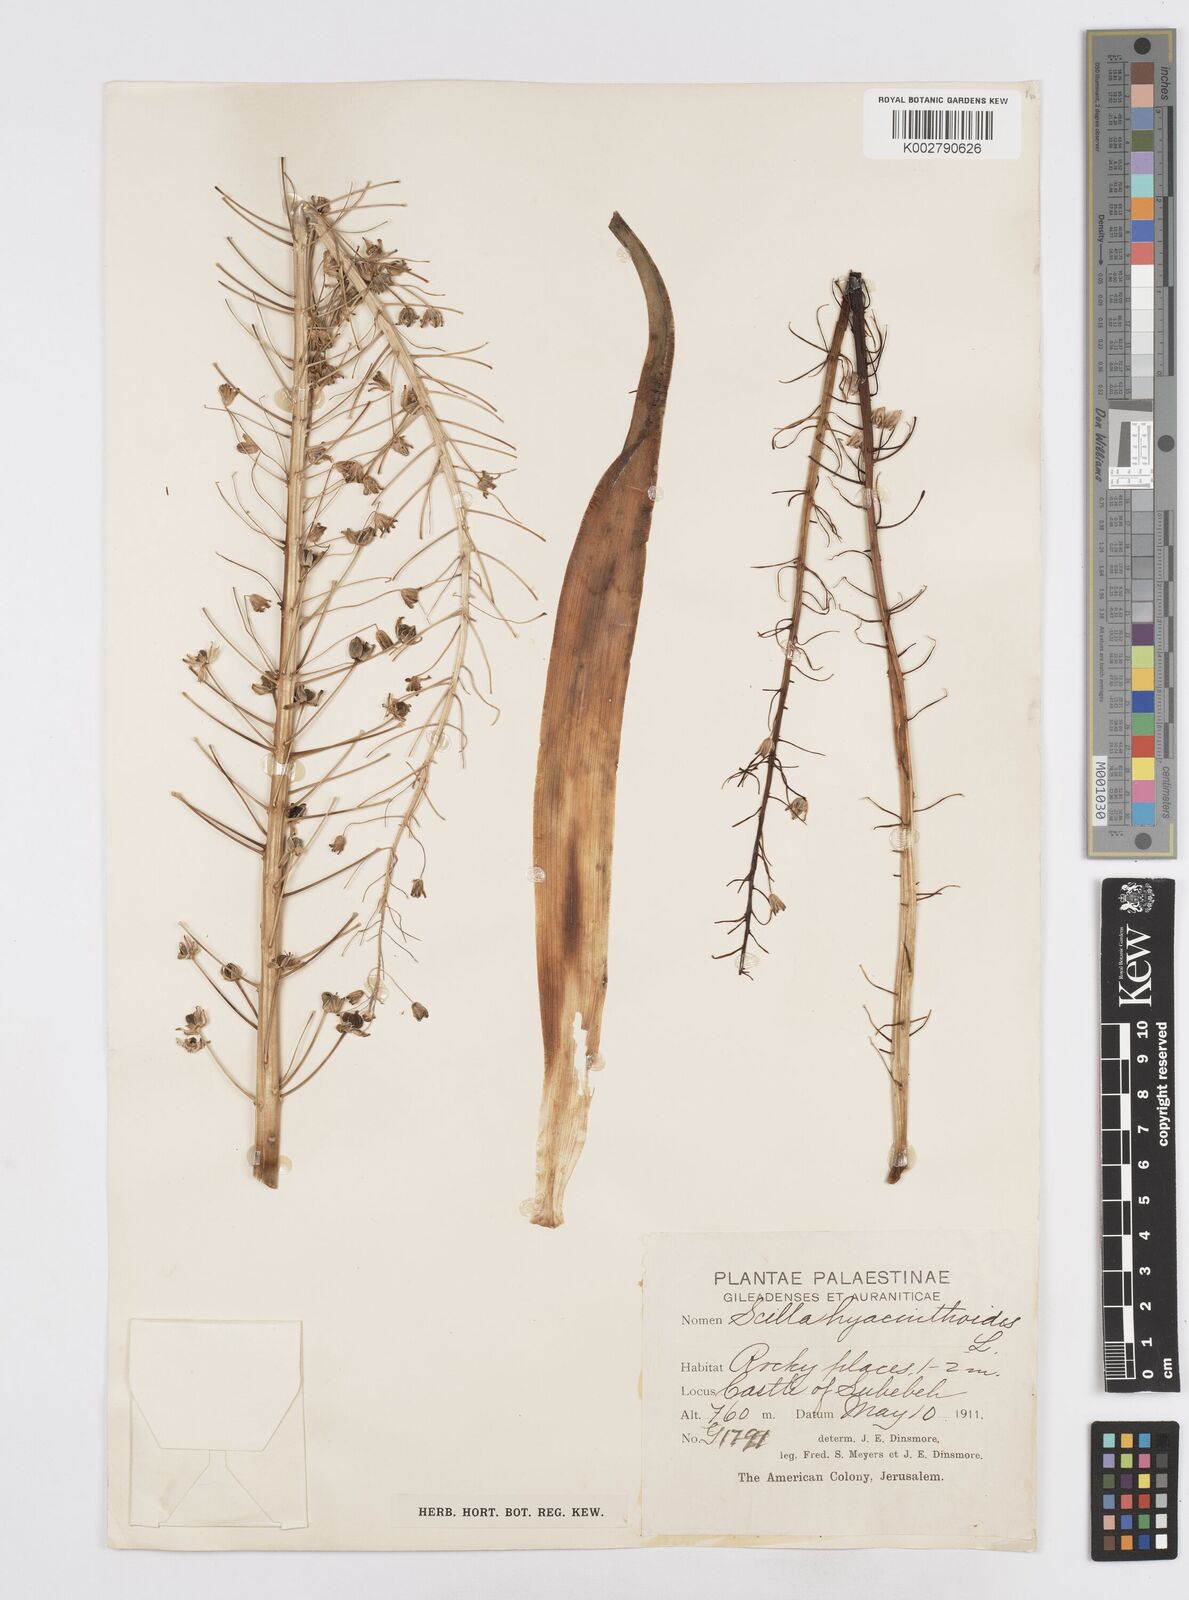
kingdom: Plantae
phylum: Tracheophyta
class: Liliopsida
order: Asparagales
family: Asparagaceae
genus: Scilla
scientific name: Scilla hyacinthoides
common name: Scilla
